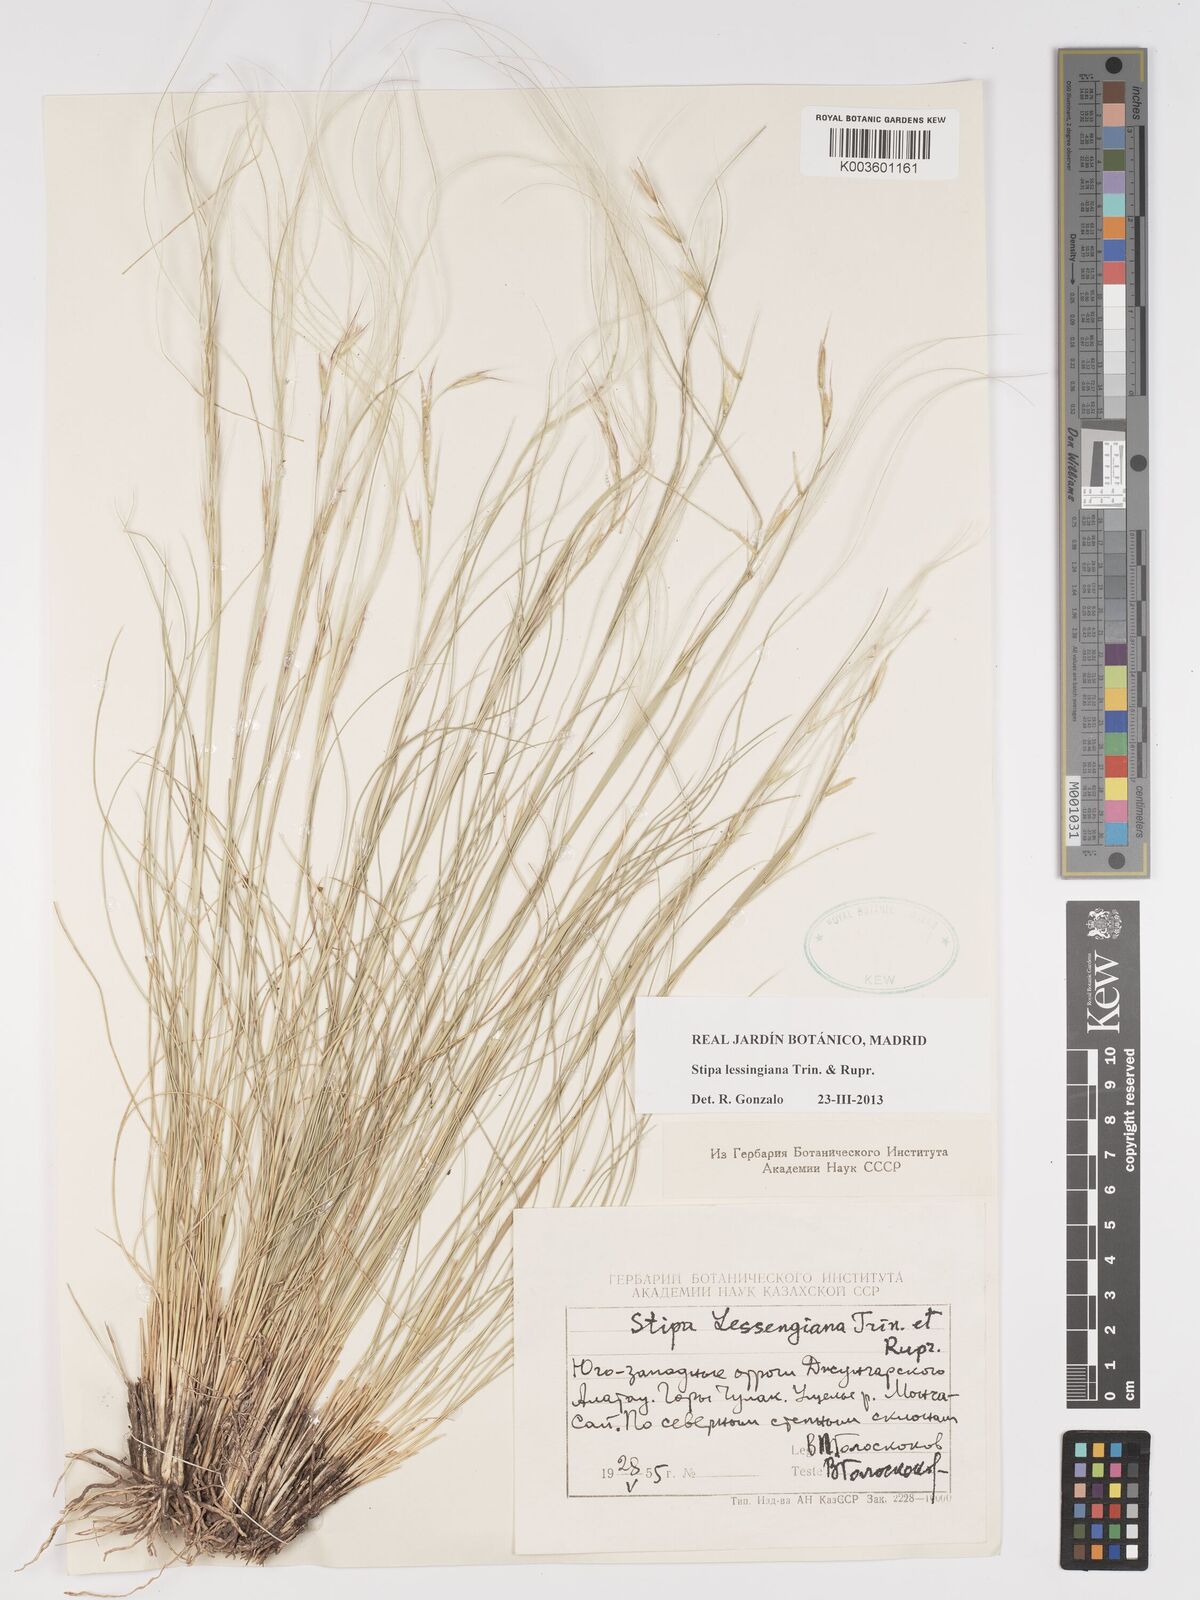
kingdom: Plantae
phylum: Tracheophyta
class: Liliopsida
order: Poales
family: Poaceae
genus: Stipa
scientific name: Stipa lessingiana
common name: Needle grass
